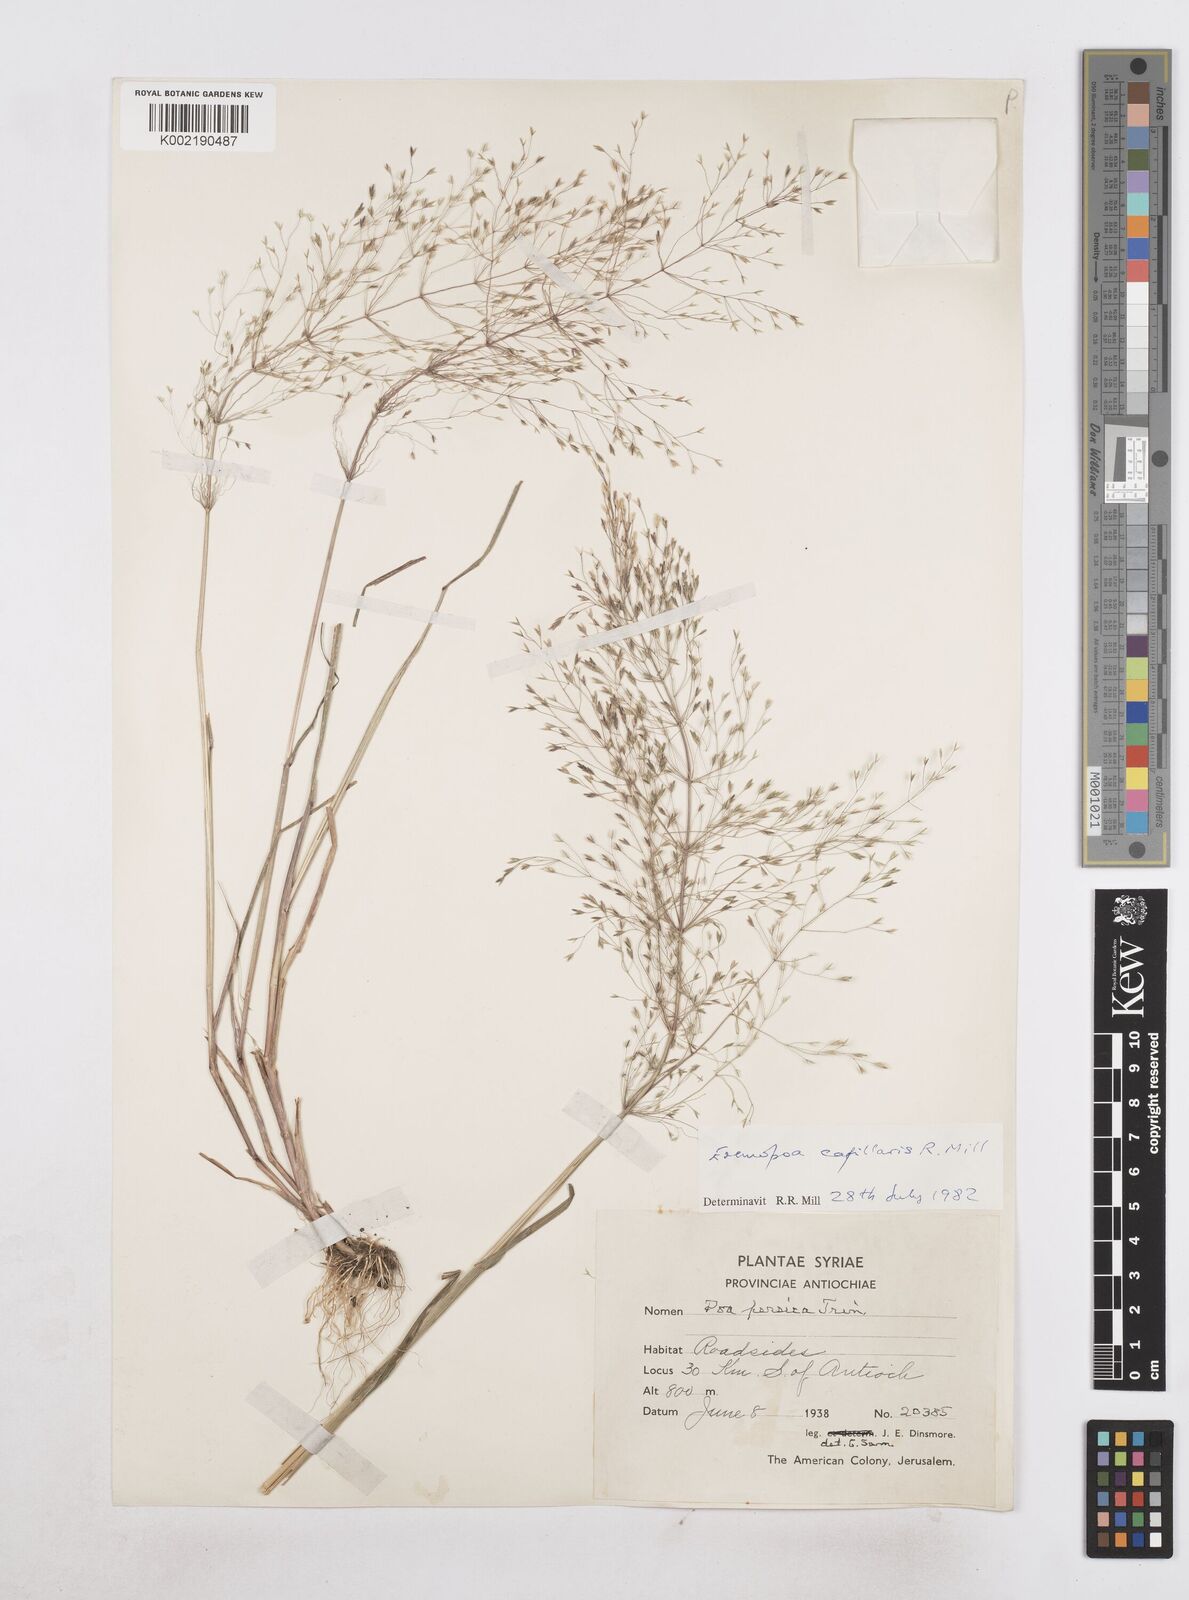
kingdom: Plantae
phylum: Tracheophyta
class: Liliopsida
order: Poales
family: Poaceae
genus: Poa
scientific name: Poa millii
